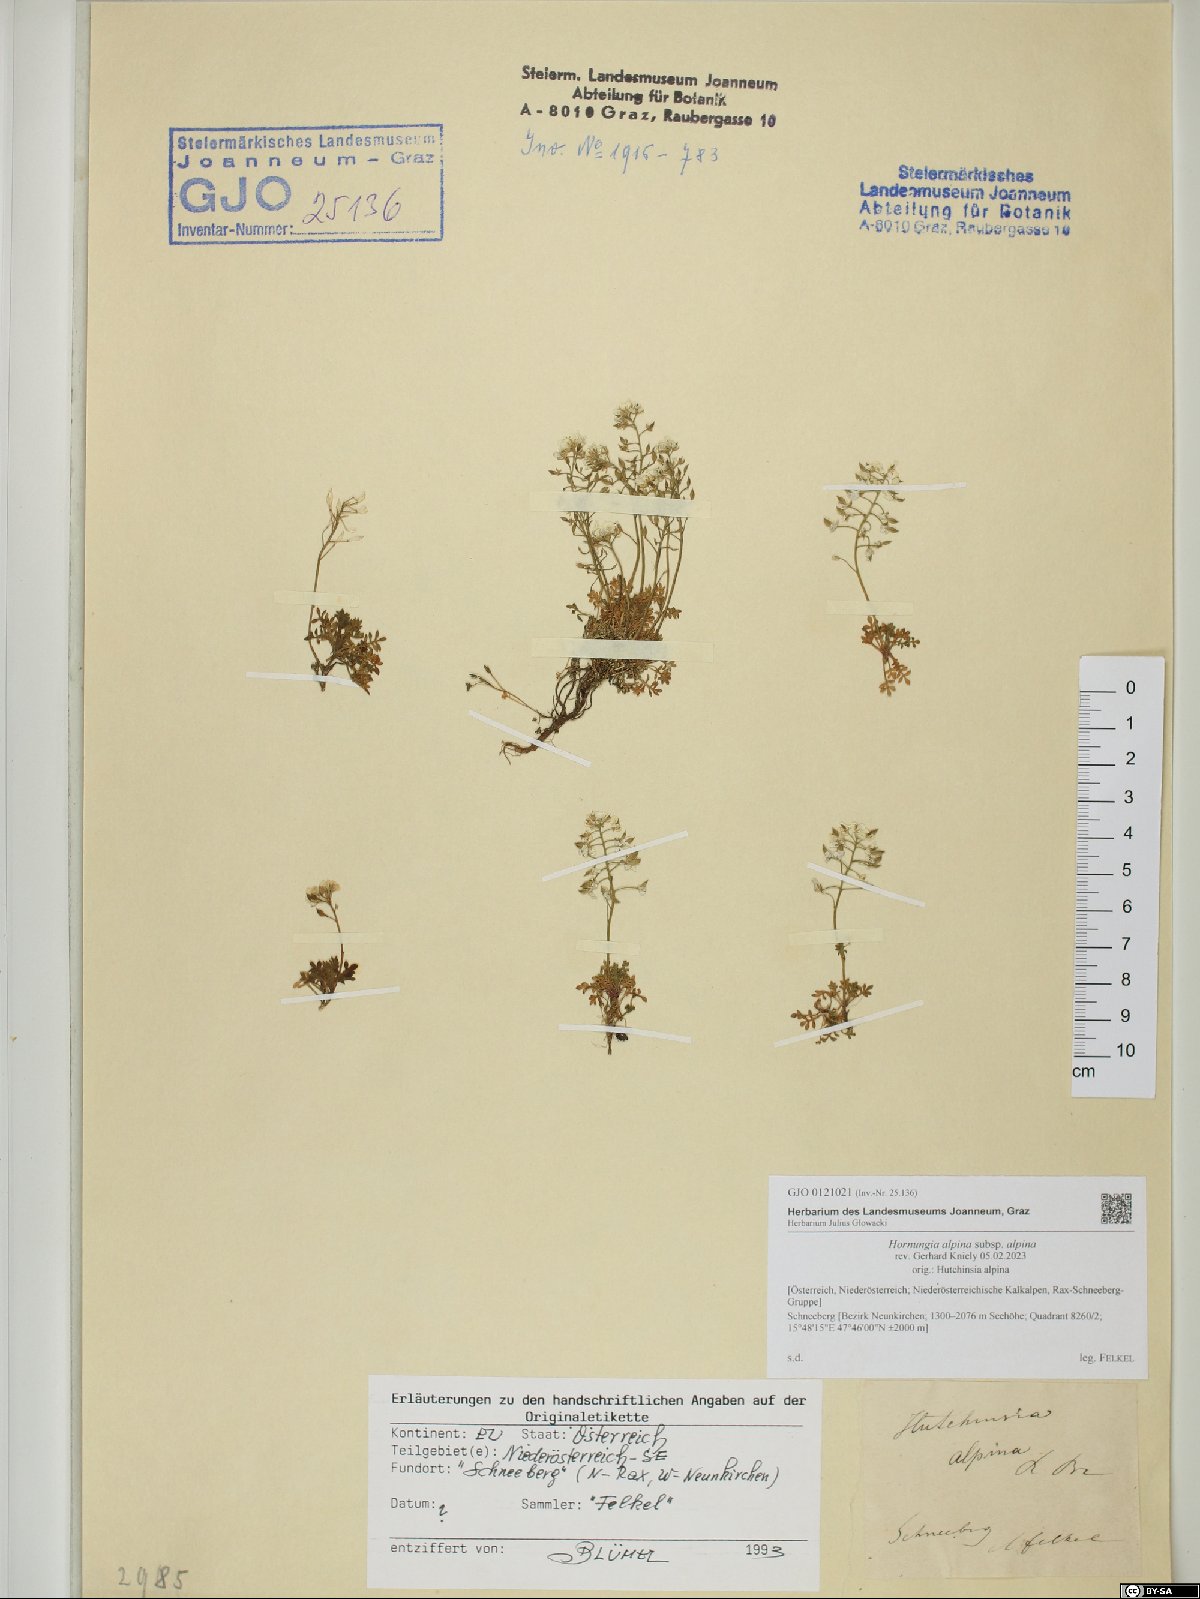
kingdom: Plantae
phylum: Tracheophyta
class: Magnoliopsida
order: Brassicales
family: Brassicaceae
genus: Hornungia
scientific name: Hornungia alpina
